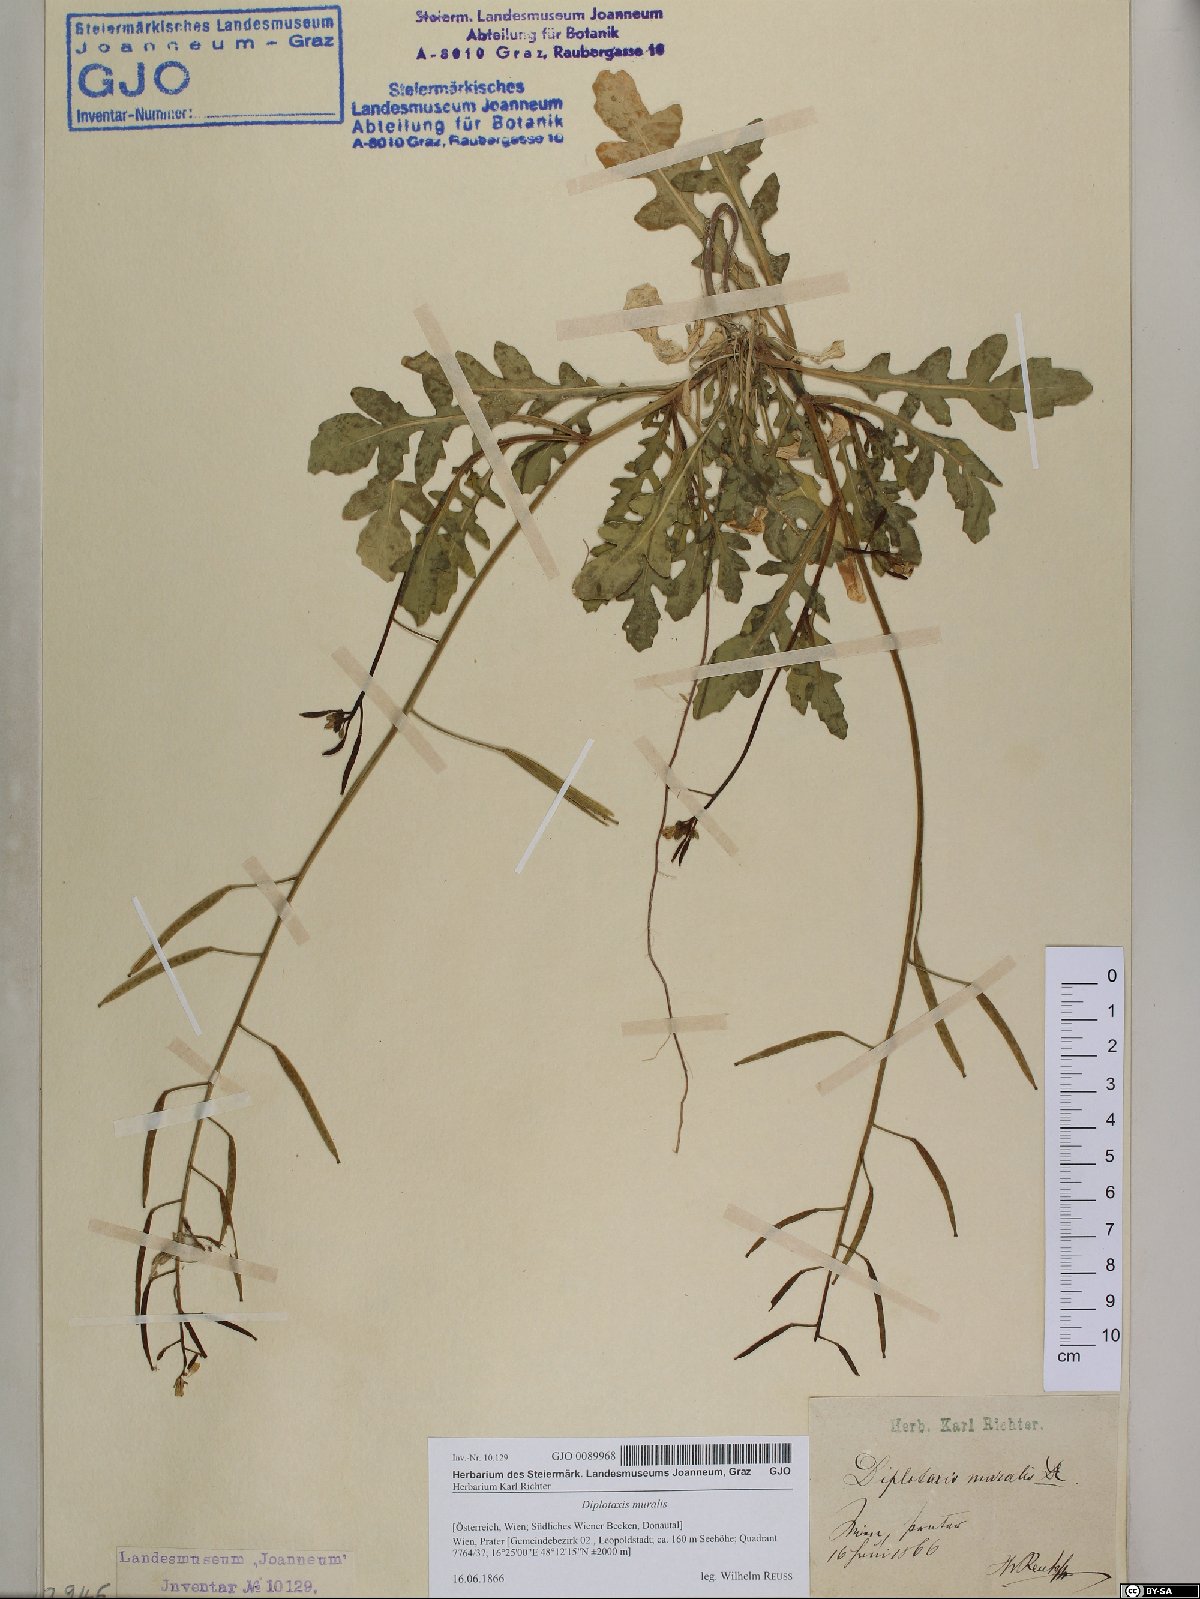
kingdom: Plantae
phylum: Tracheophyta
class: Magnoliopsida
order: Brassicales
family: Brassicaceae
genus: Diplotaxis
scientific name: Diplotaxis muralis
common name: Annual wall-rocket
